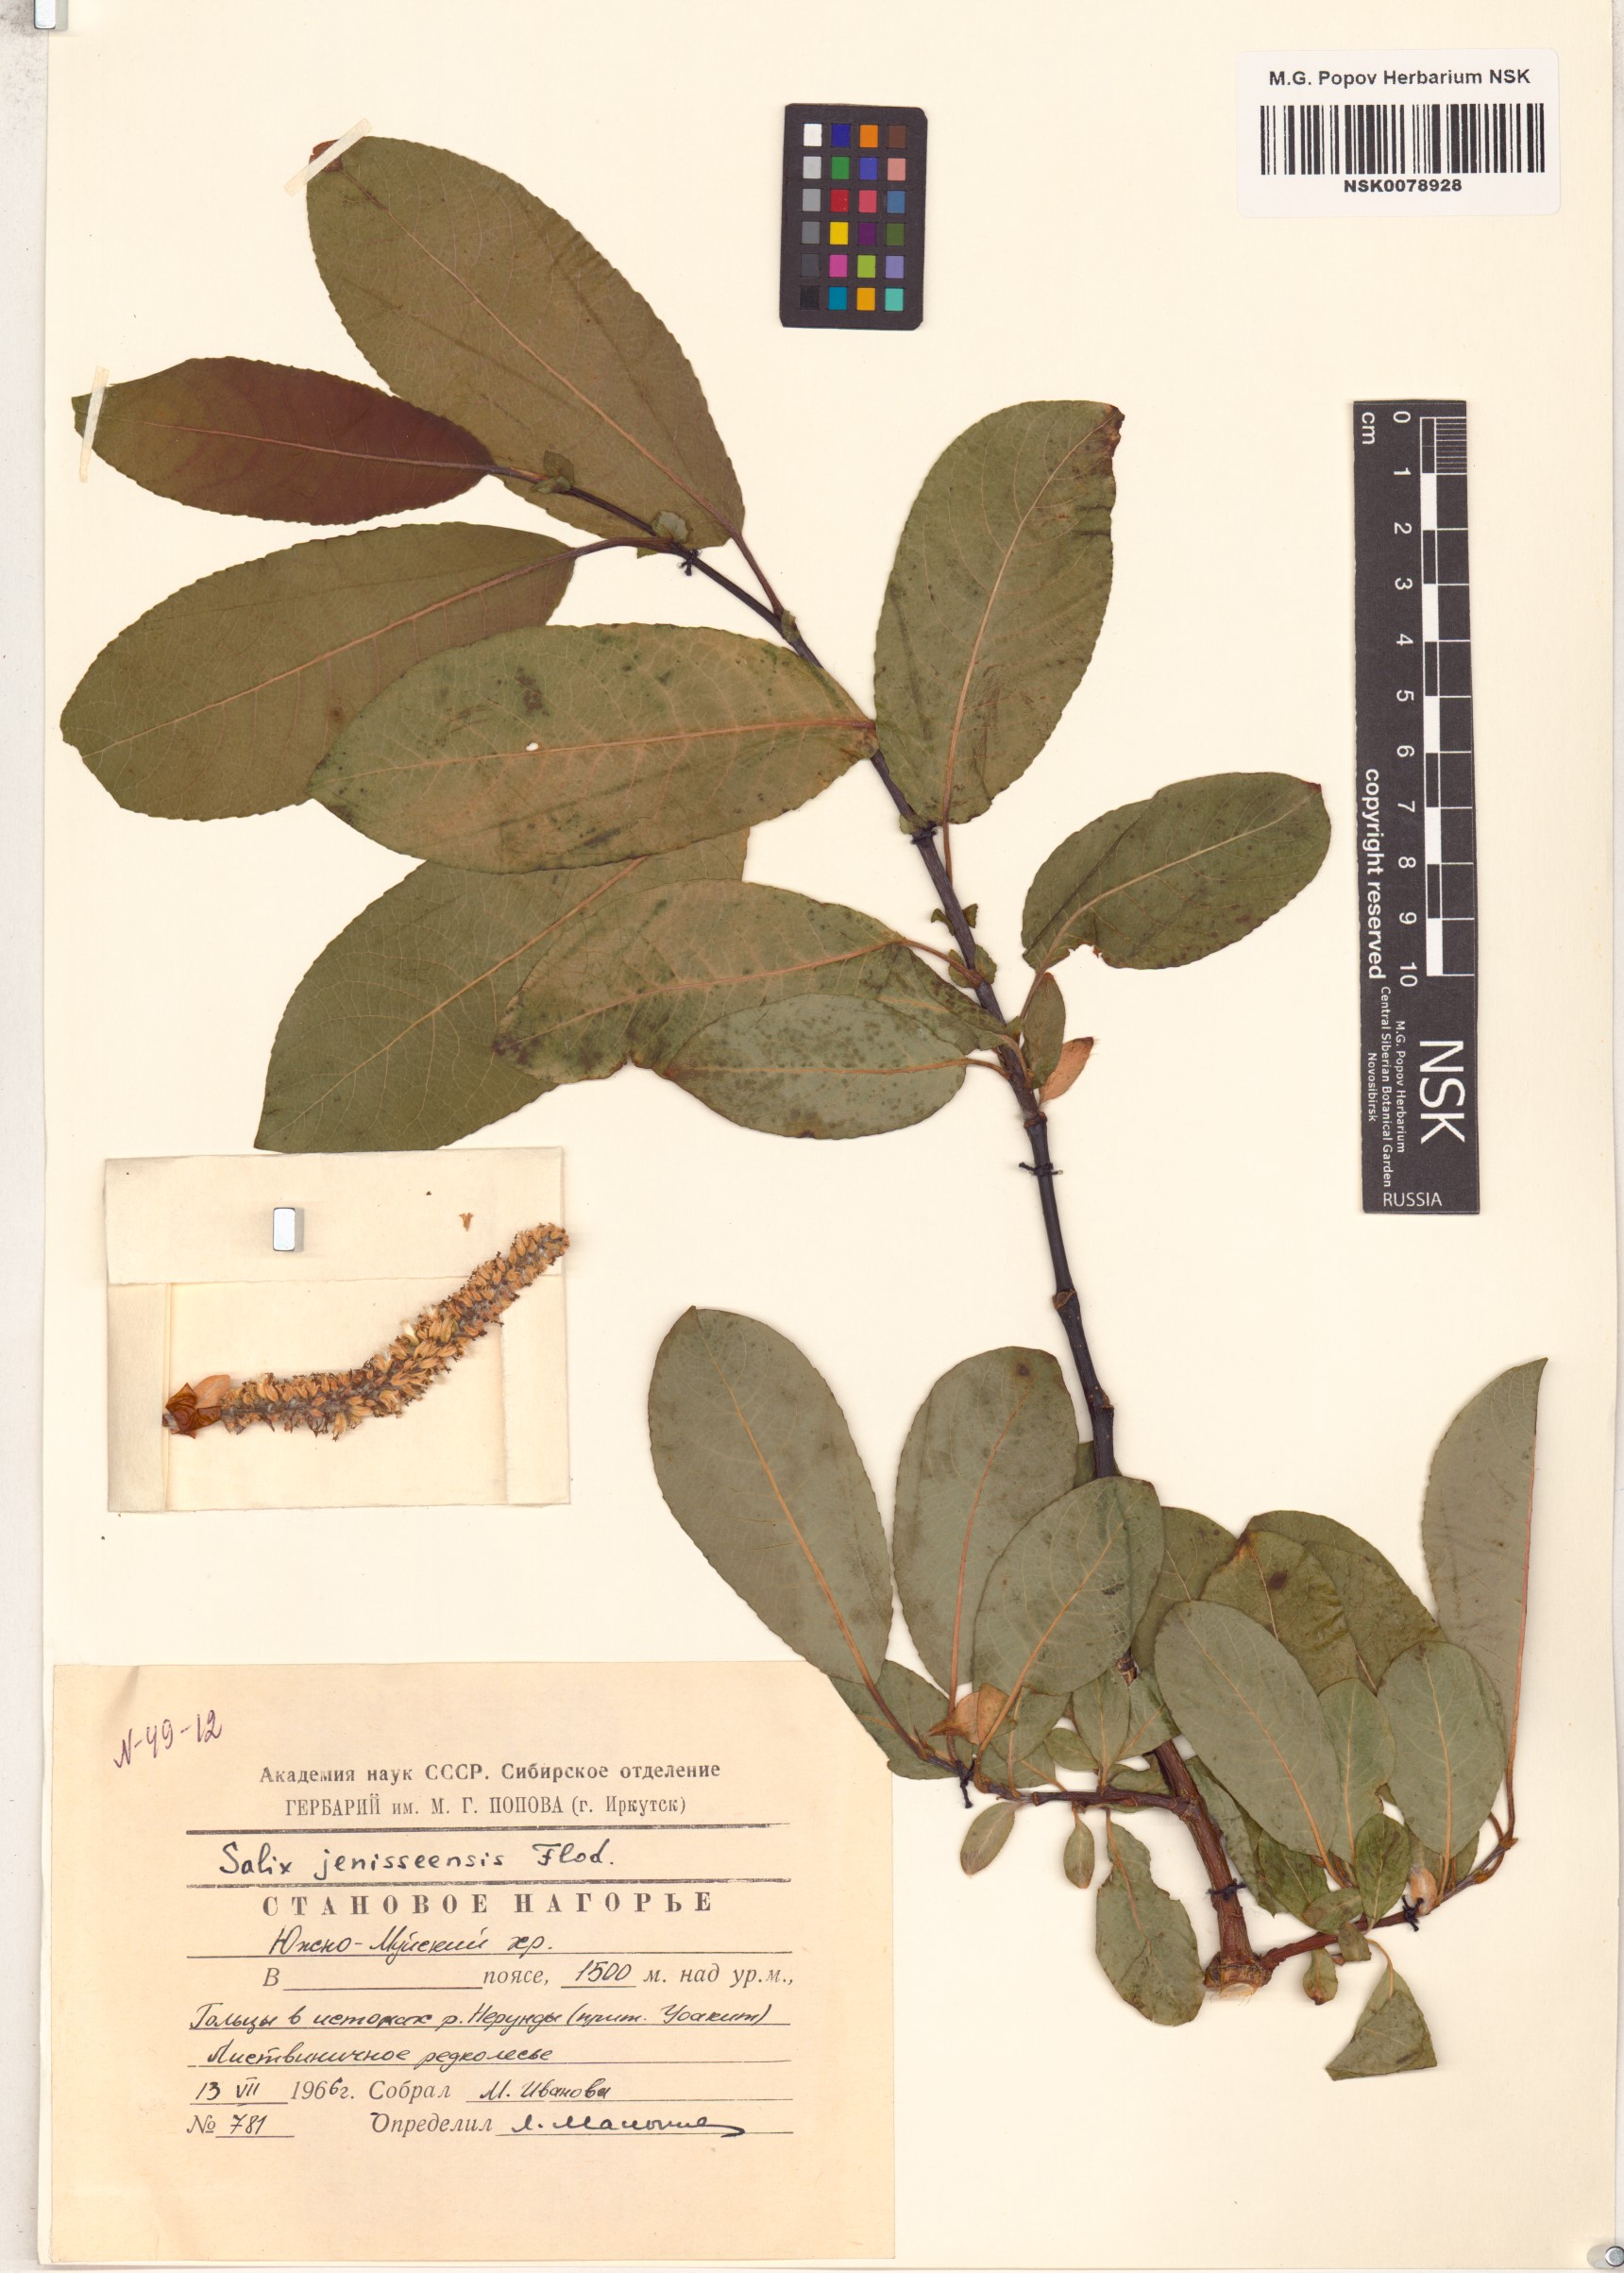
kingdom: Plantae
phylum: Tracheophyta
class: Magnoliopsida
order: Malpighiales
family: Salicaceae
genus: Salix
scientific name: Salix jenisseensis
